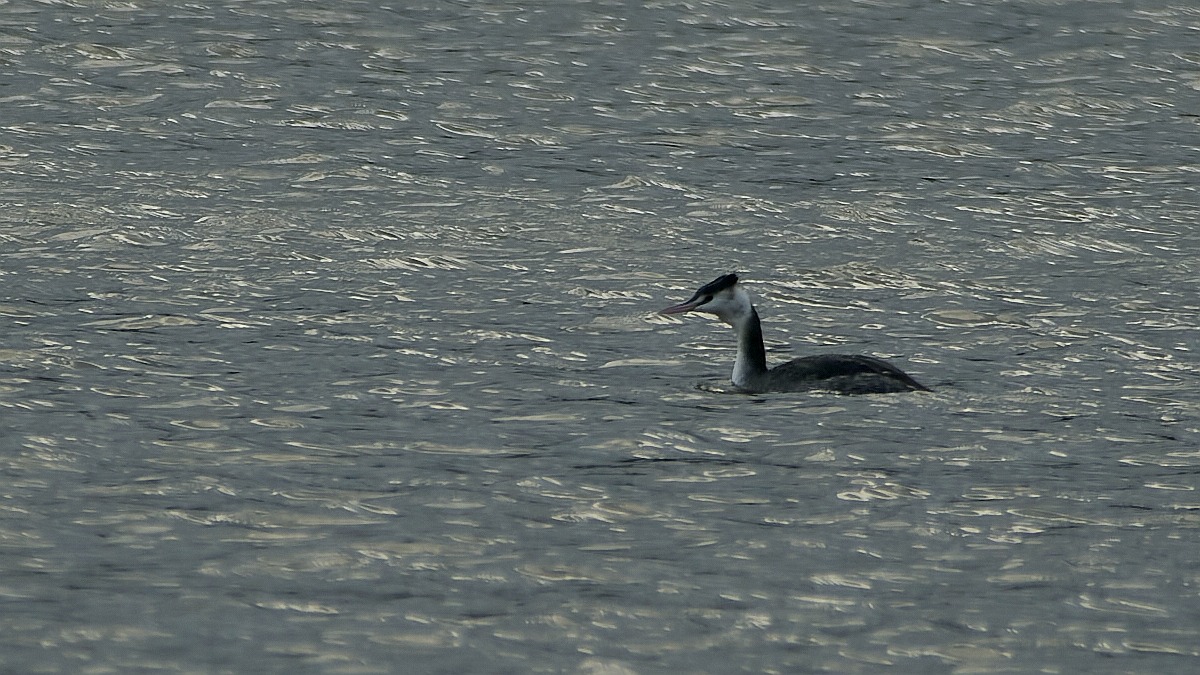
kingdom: Animalia
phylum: Chordata
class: Aves
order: Podicipediformes
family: Podicipedidae
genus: Podiceps
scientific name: Podiceps cristatus
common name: Toppet lappedykker
